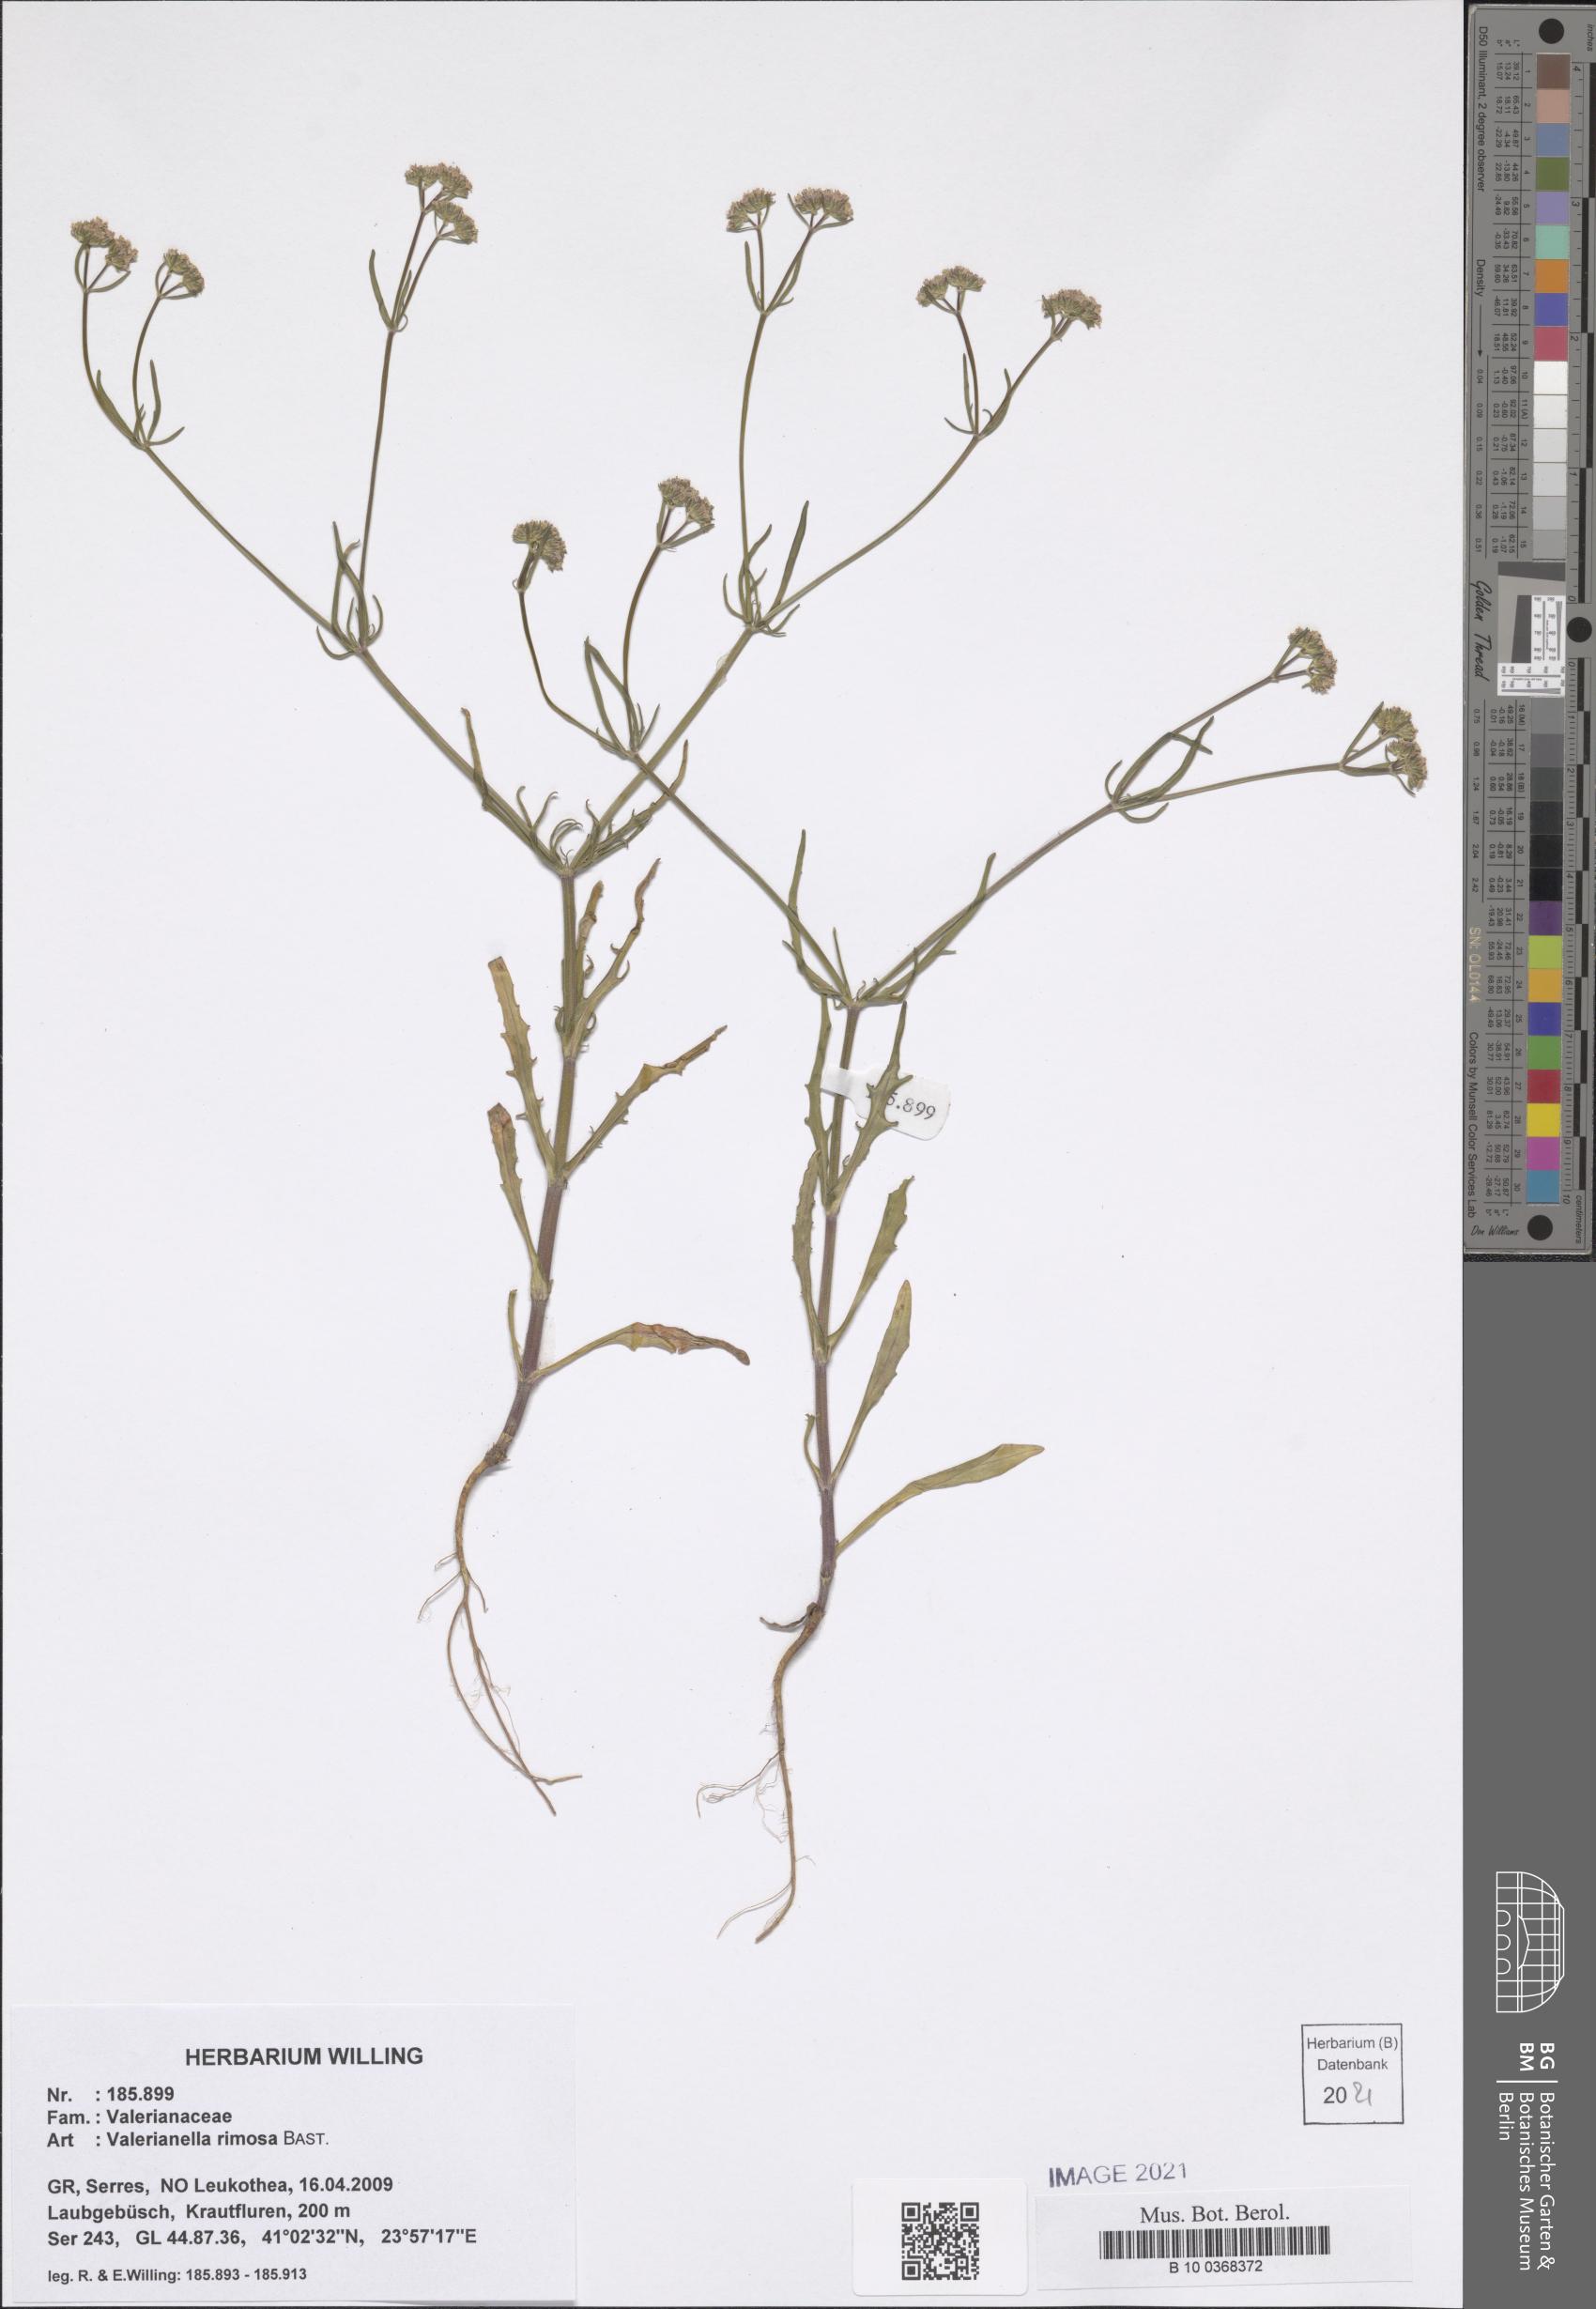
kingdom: Plantae
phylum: Tracheophyta
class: Magnoliopsida
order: Dipsacales
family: Caprifoliaceae
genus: Valerianella
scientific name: Valerianella rimosa
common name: Broad-fruited cornsalad
